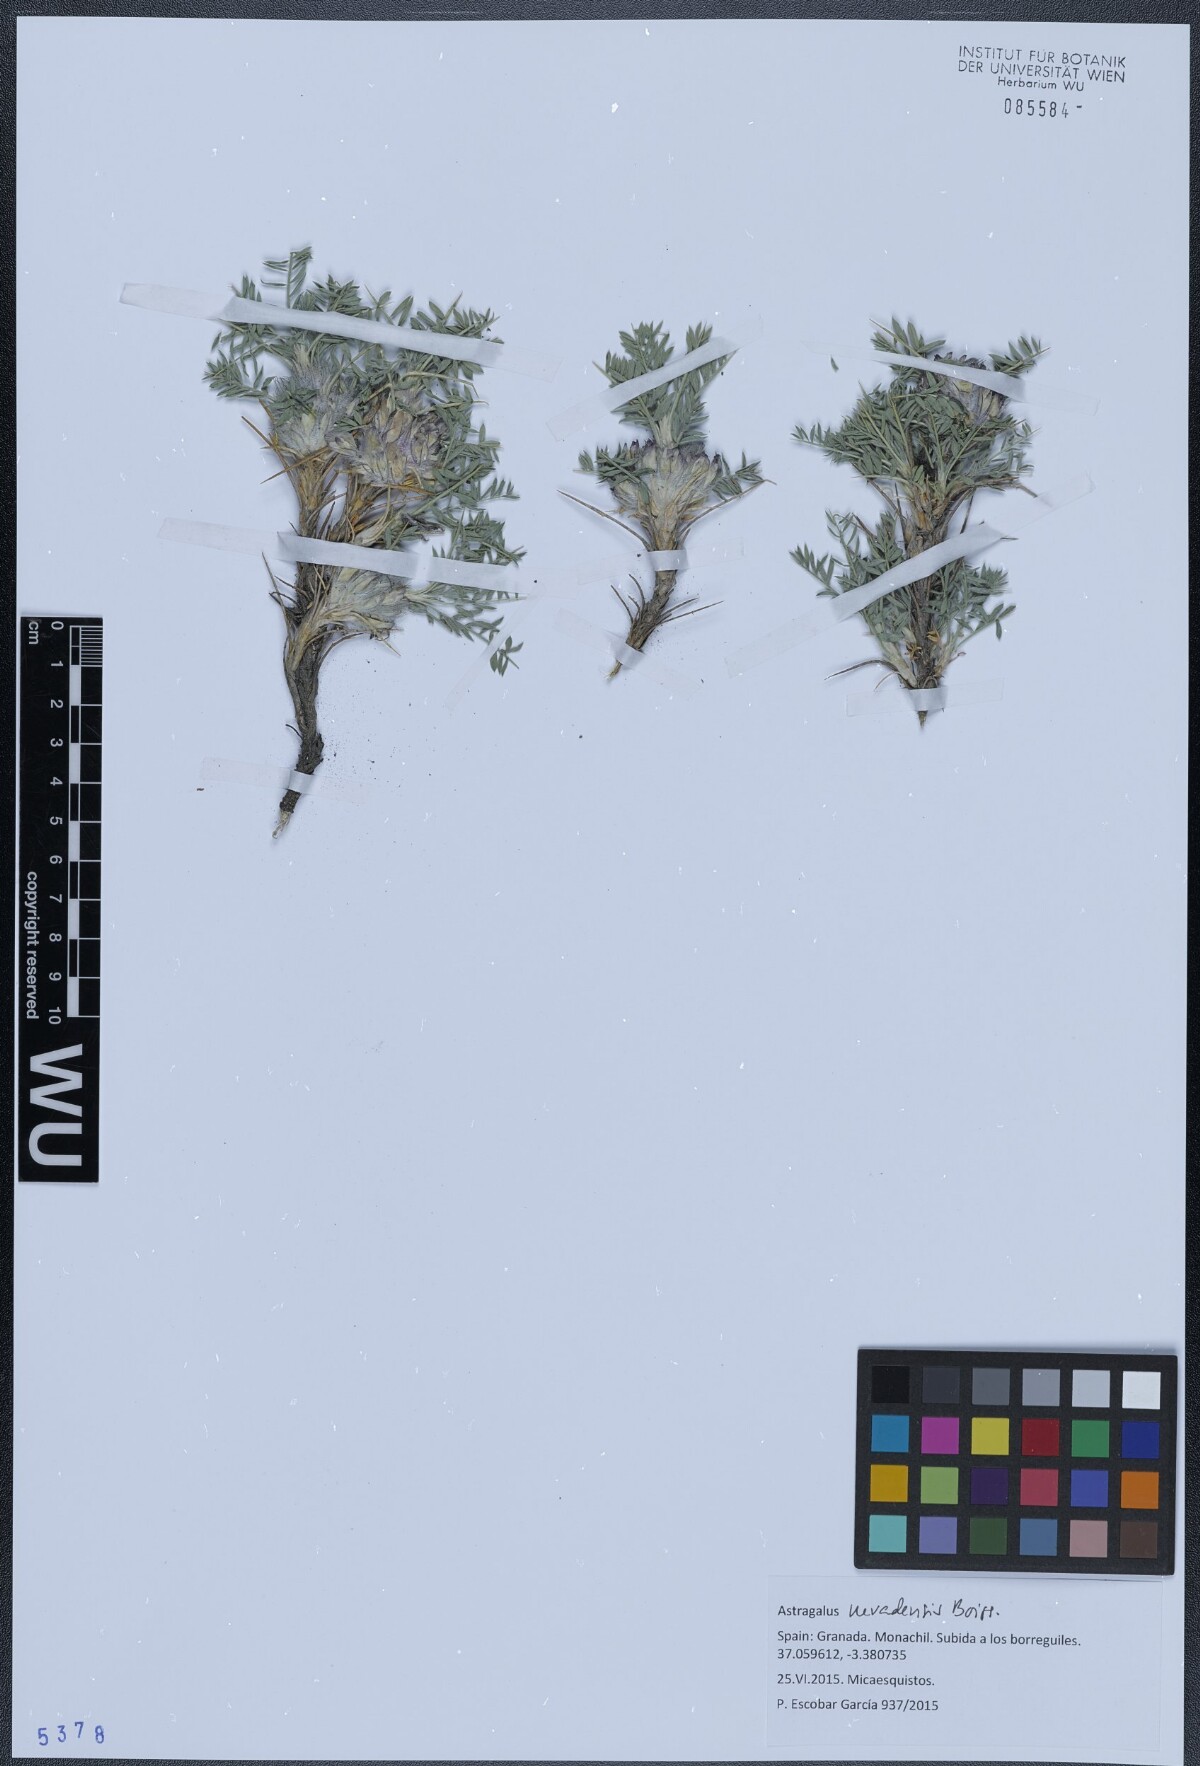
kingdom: Plantae
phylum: Tracheophyta
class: Magnoliopsida
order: Fabales
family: Fabaceae
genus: Astragalus
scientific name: Astragalus nevadensis
